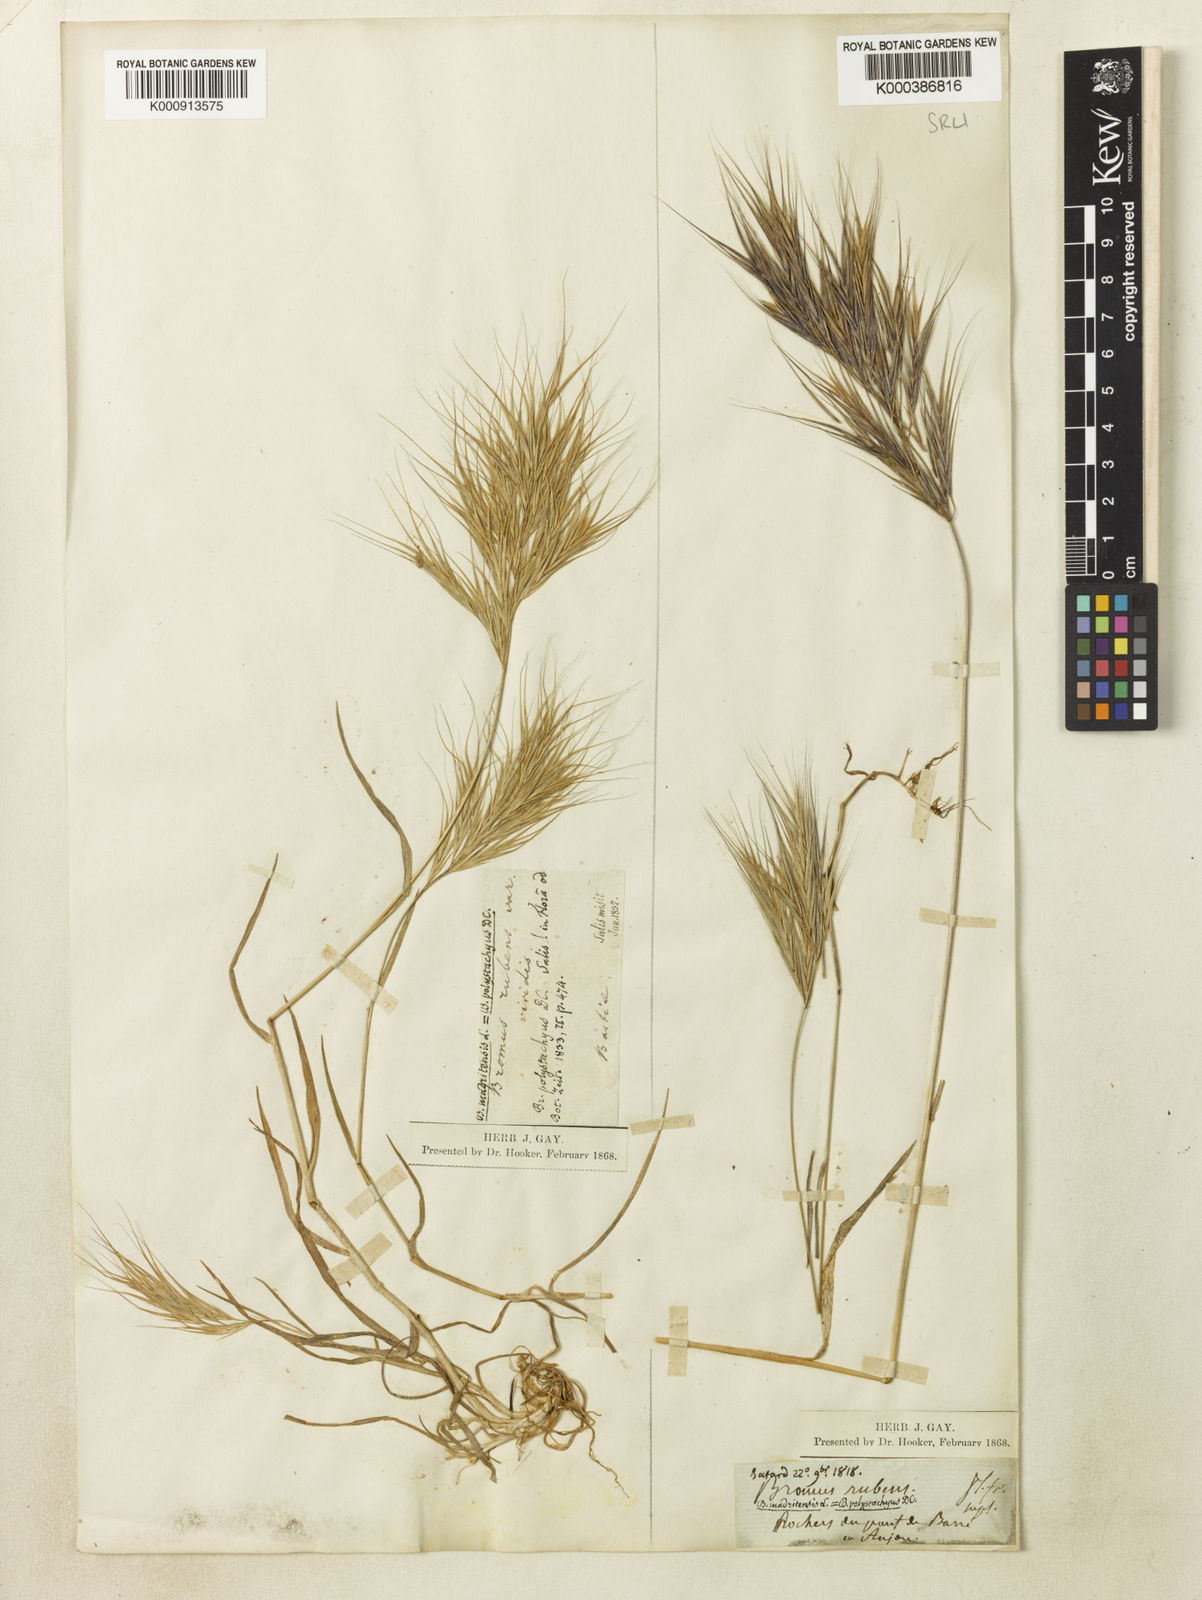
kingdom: Plantae
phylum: Tracheophyta
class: Liliopsida
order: Poales
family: Poaceae
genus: Bromus
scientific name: Bromus madritensis
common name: Compact brome
